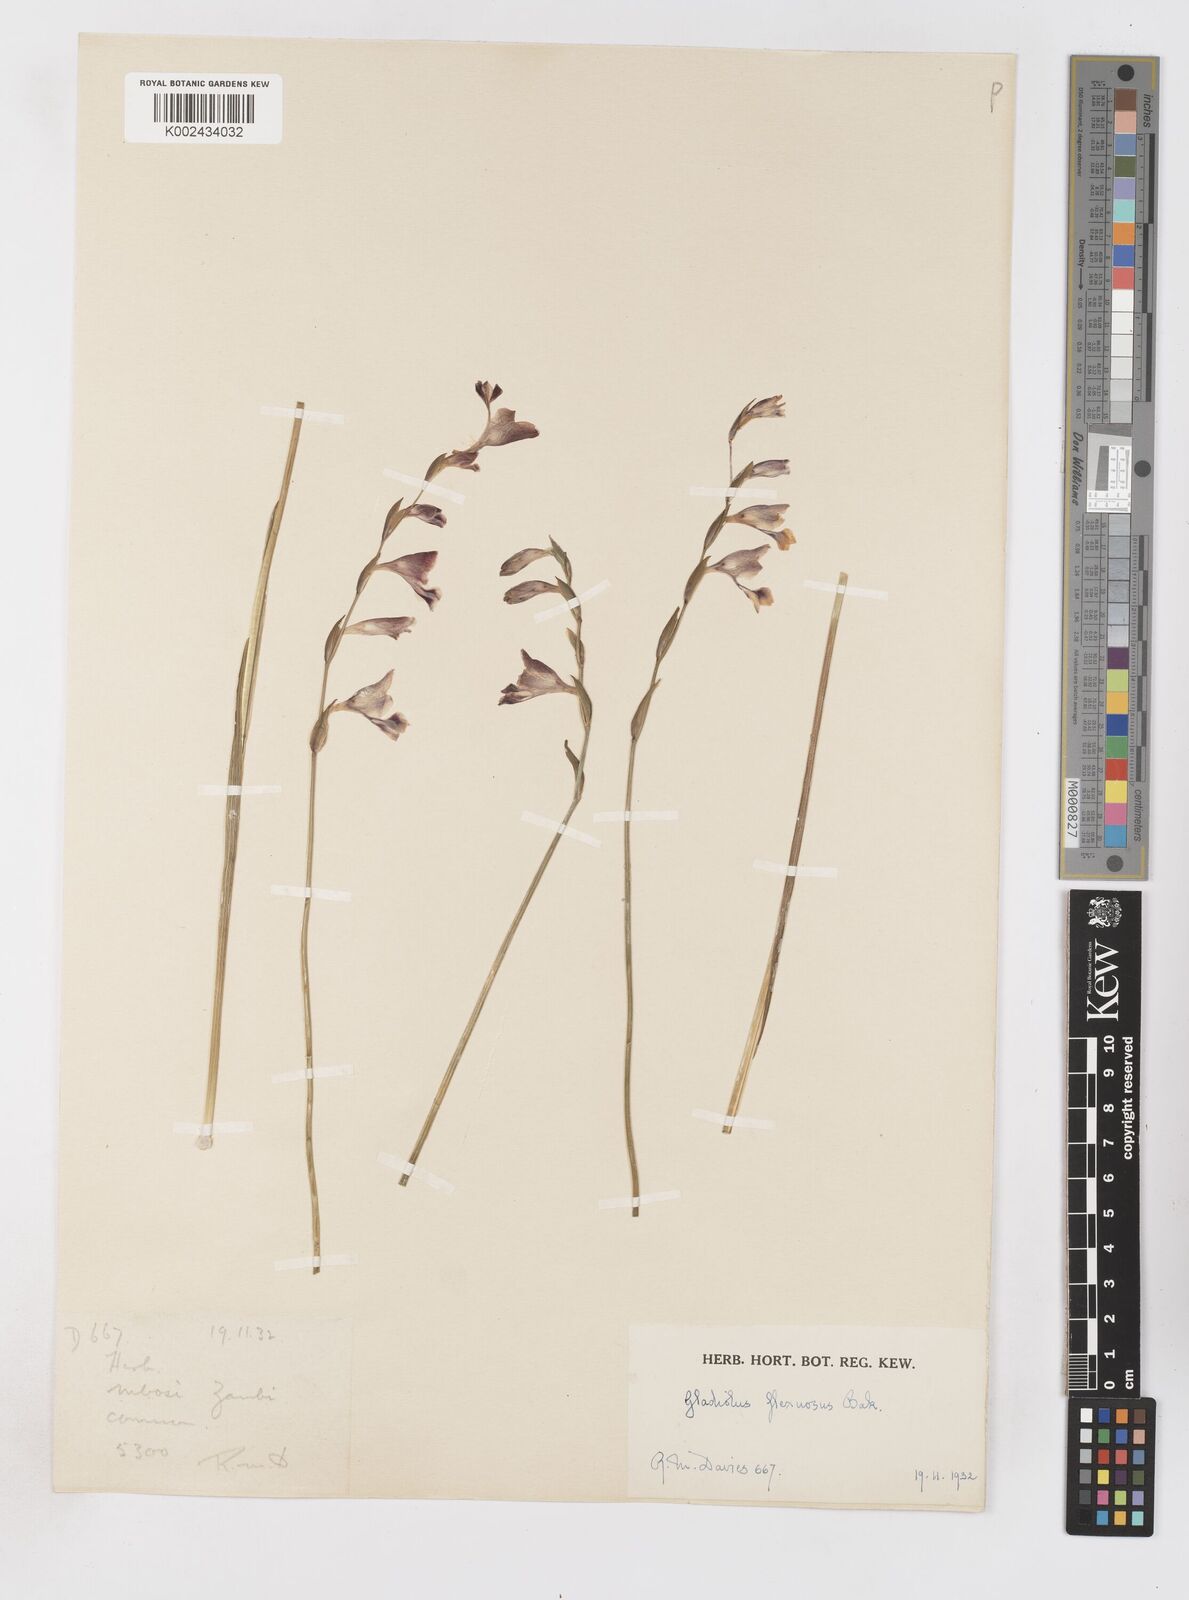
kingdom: Plantae
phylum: Tracheophyta
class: Liliopsida
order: Asparagales
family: Iridaceae
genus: Gladiolus
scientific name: Gladiolus atropurpureus
